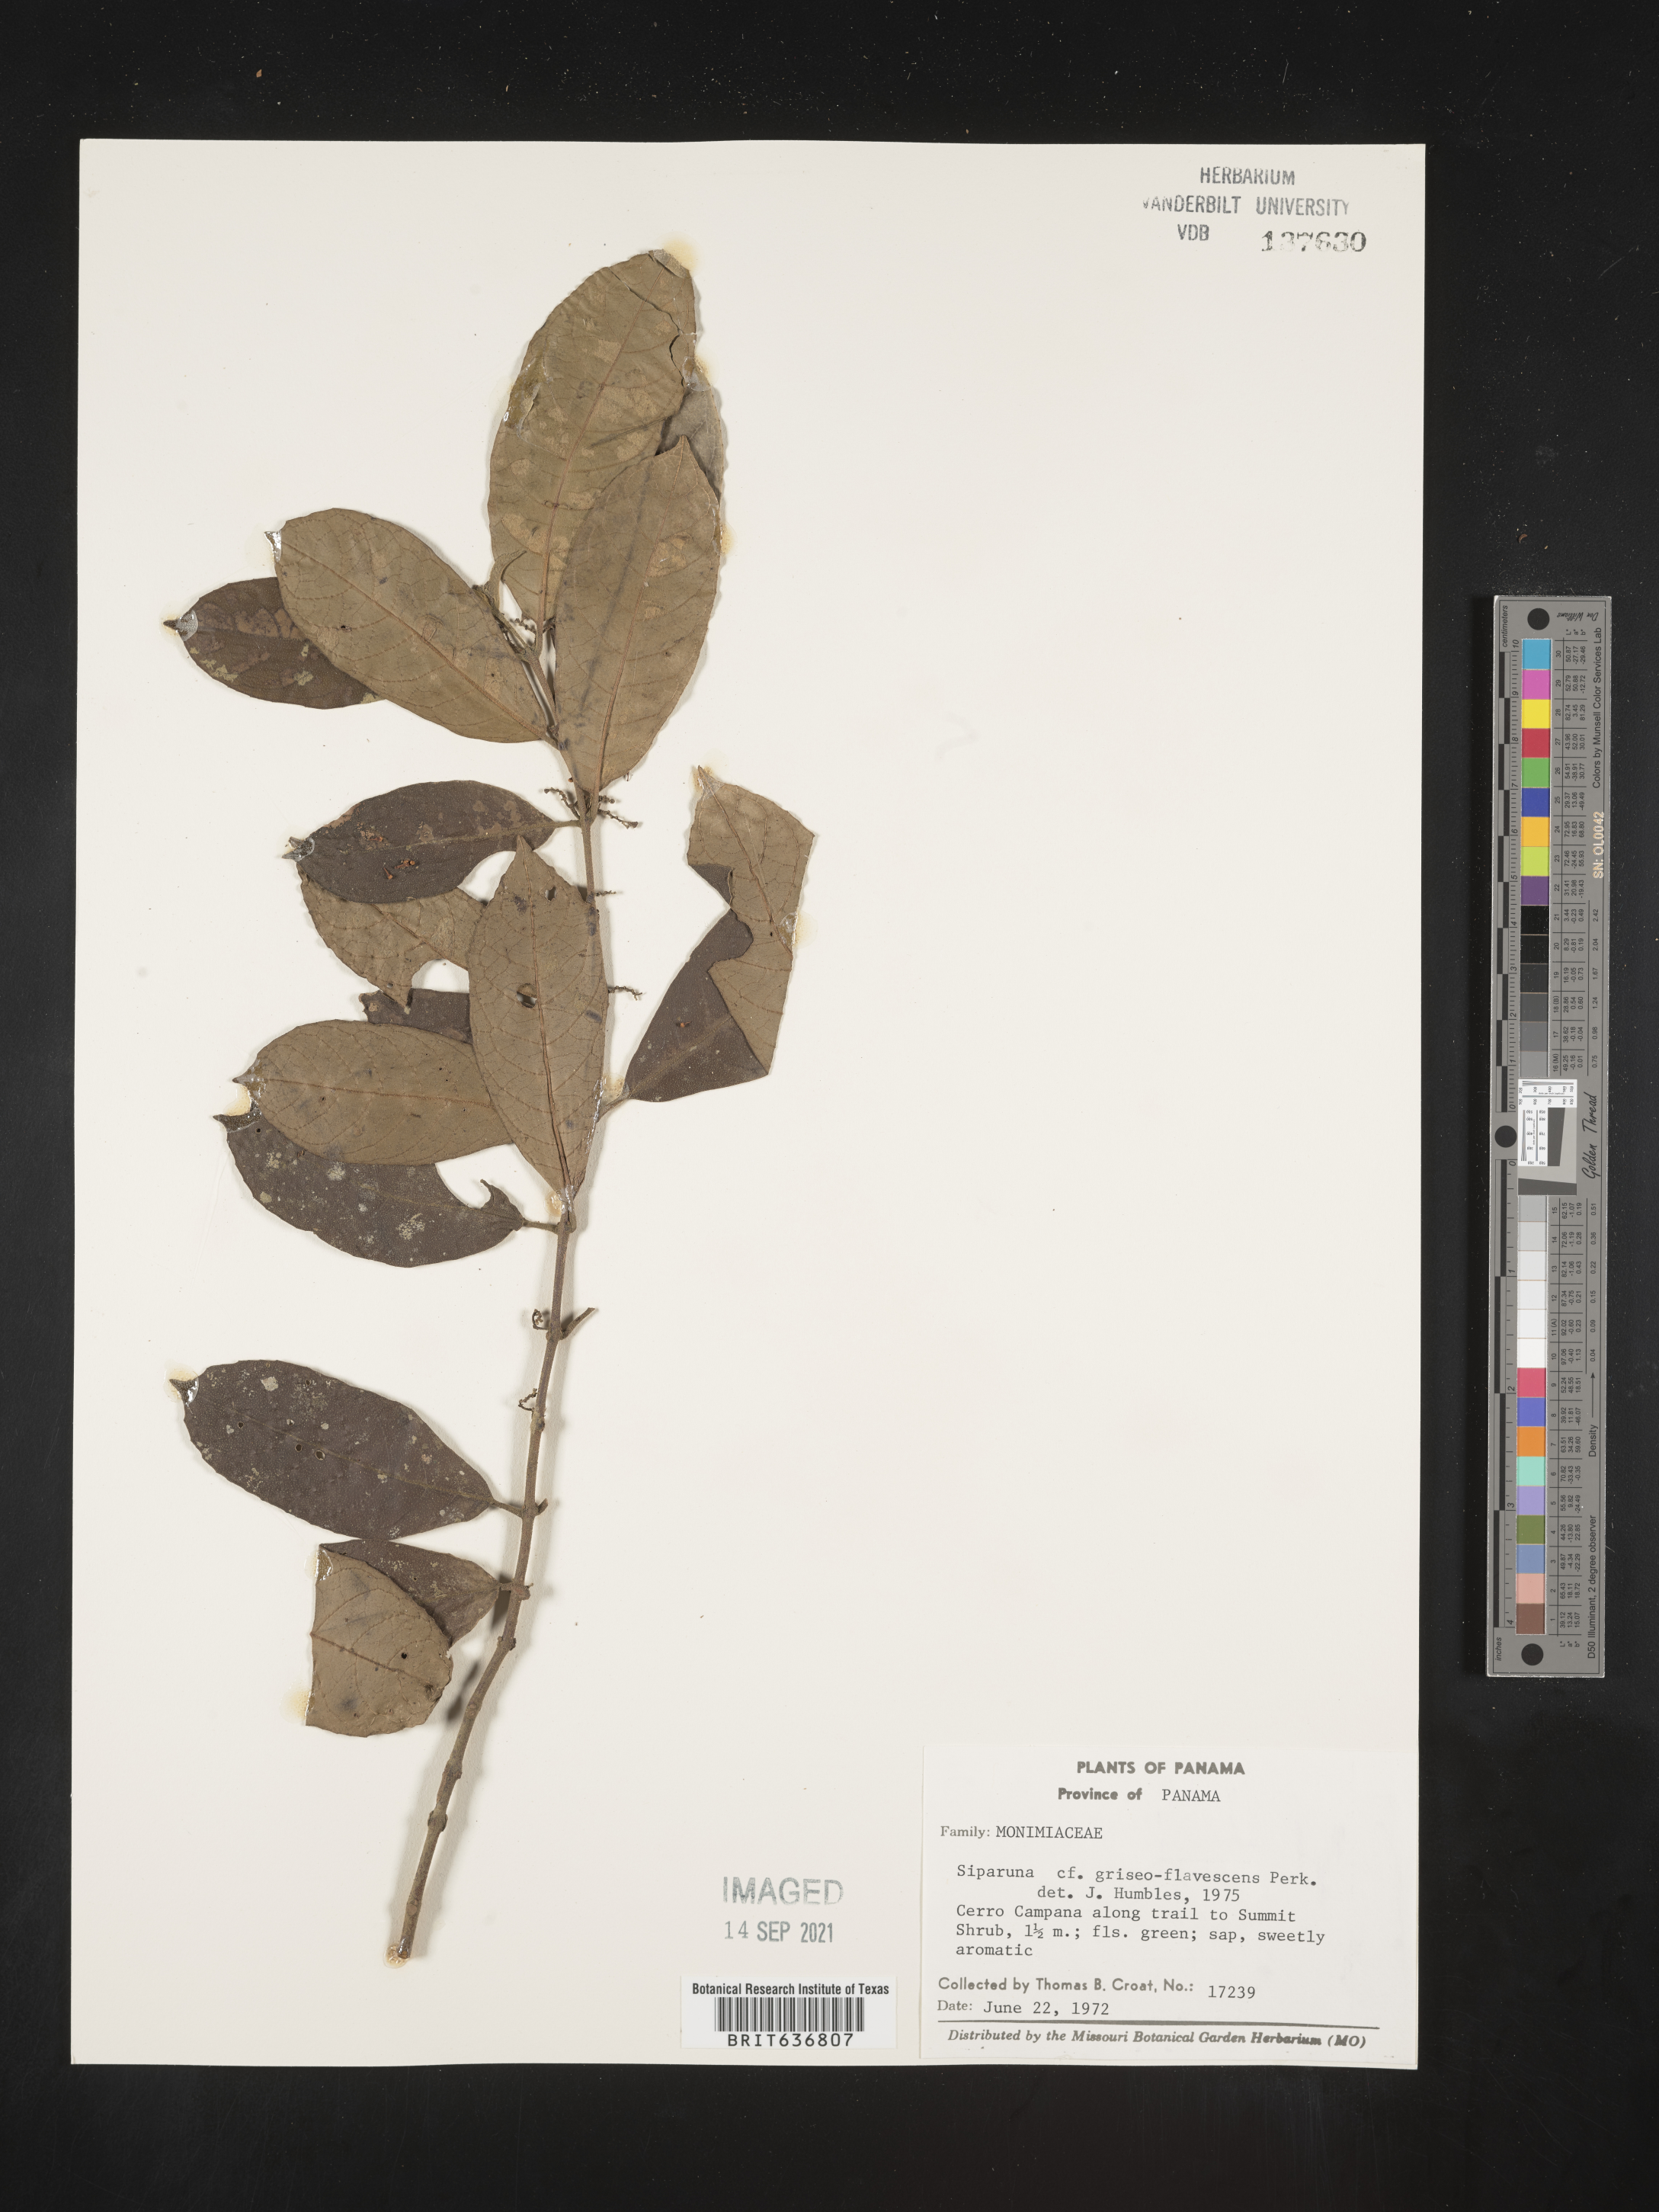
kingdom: Plantae
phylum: Tracheophyta
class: Magnoliopsida
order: Laurales
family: Siparunaceae
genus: Siparuna
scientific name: Siparuna
